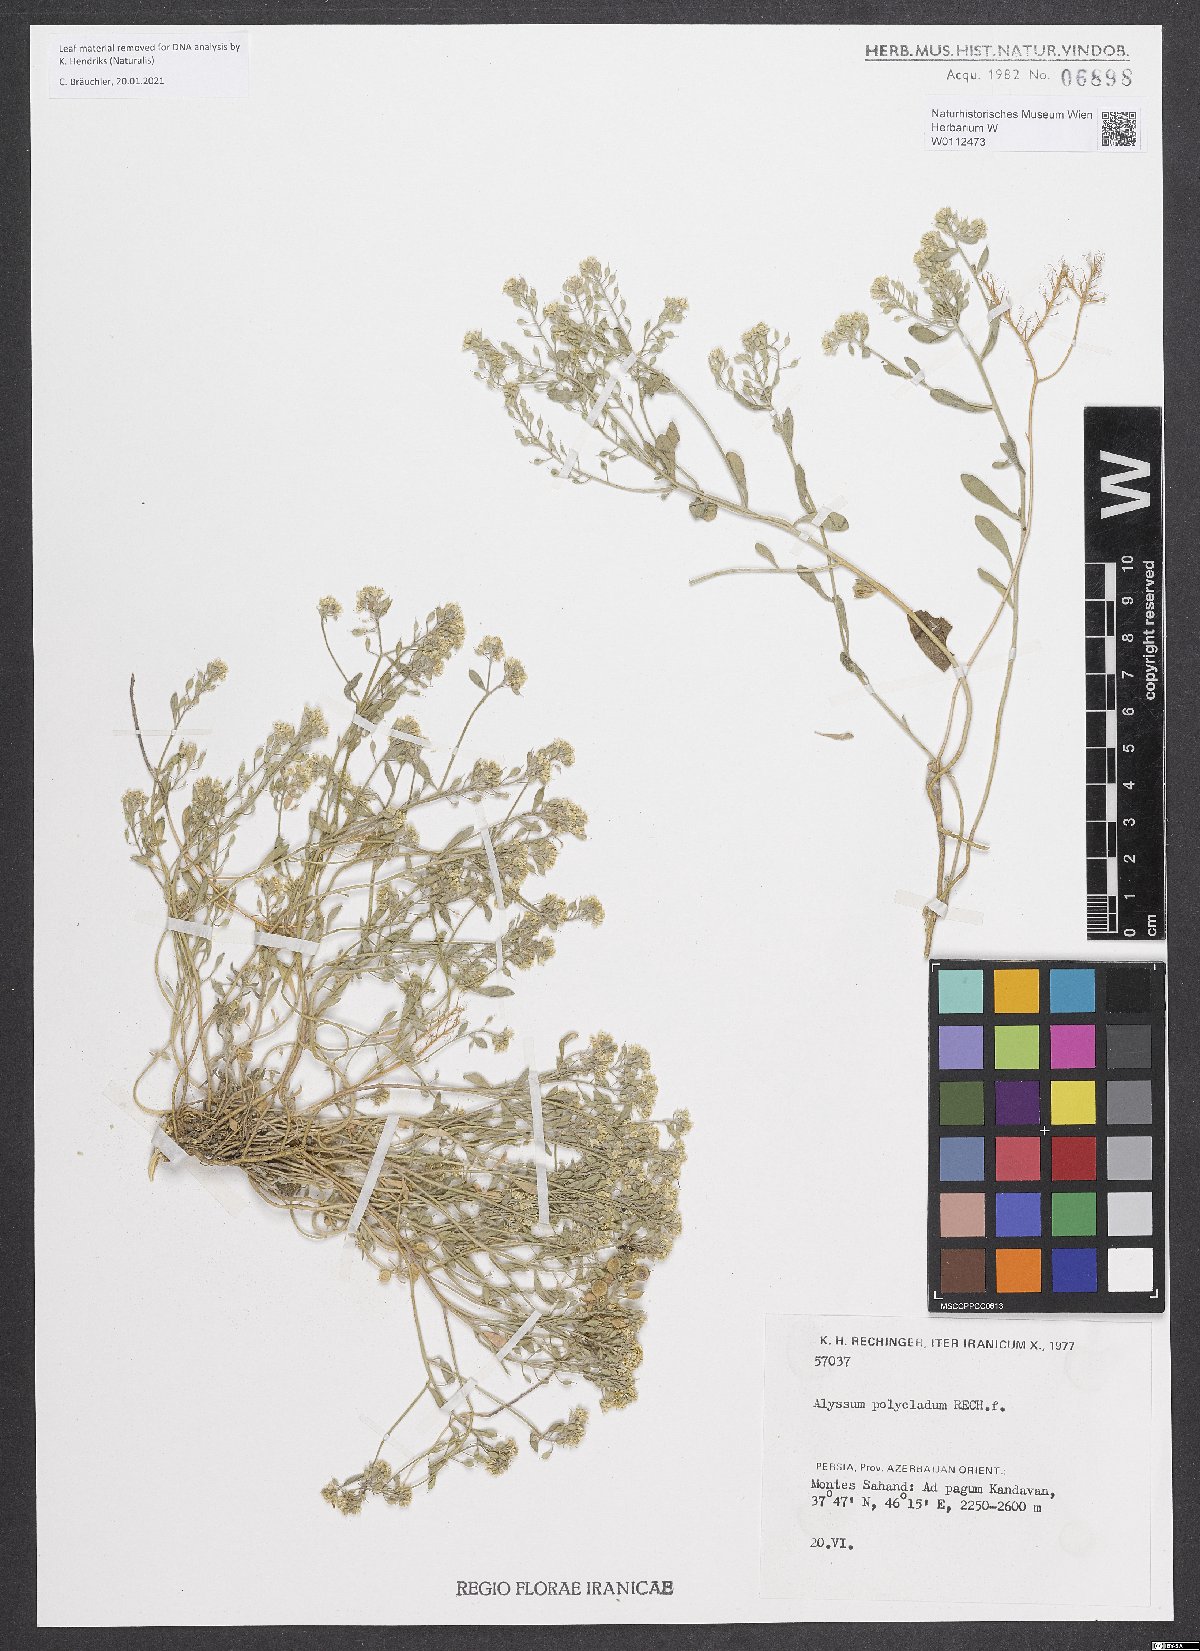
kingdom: Plantae
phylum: Tracheophyta
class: Magnoliopsida
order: Brassicales
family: Brassicaceae
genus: Odontarrhena
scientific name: Odontarrhena polyclada
